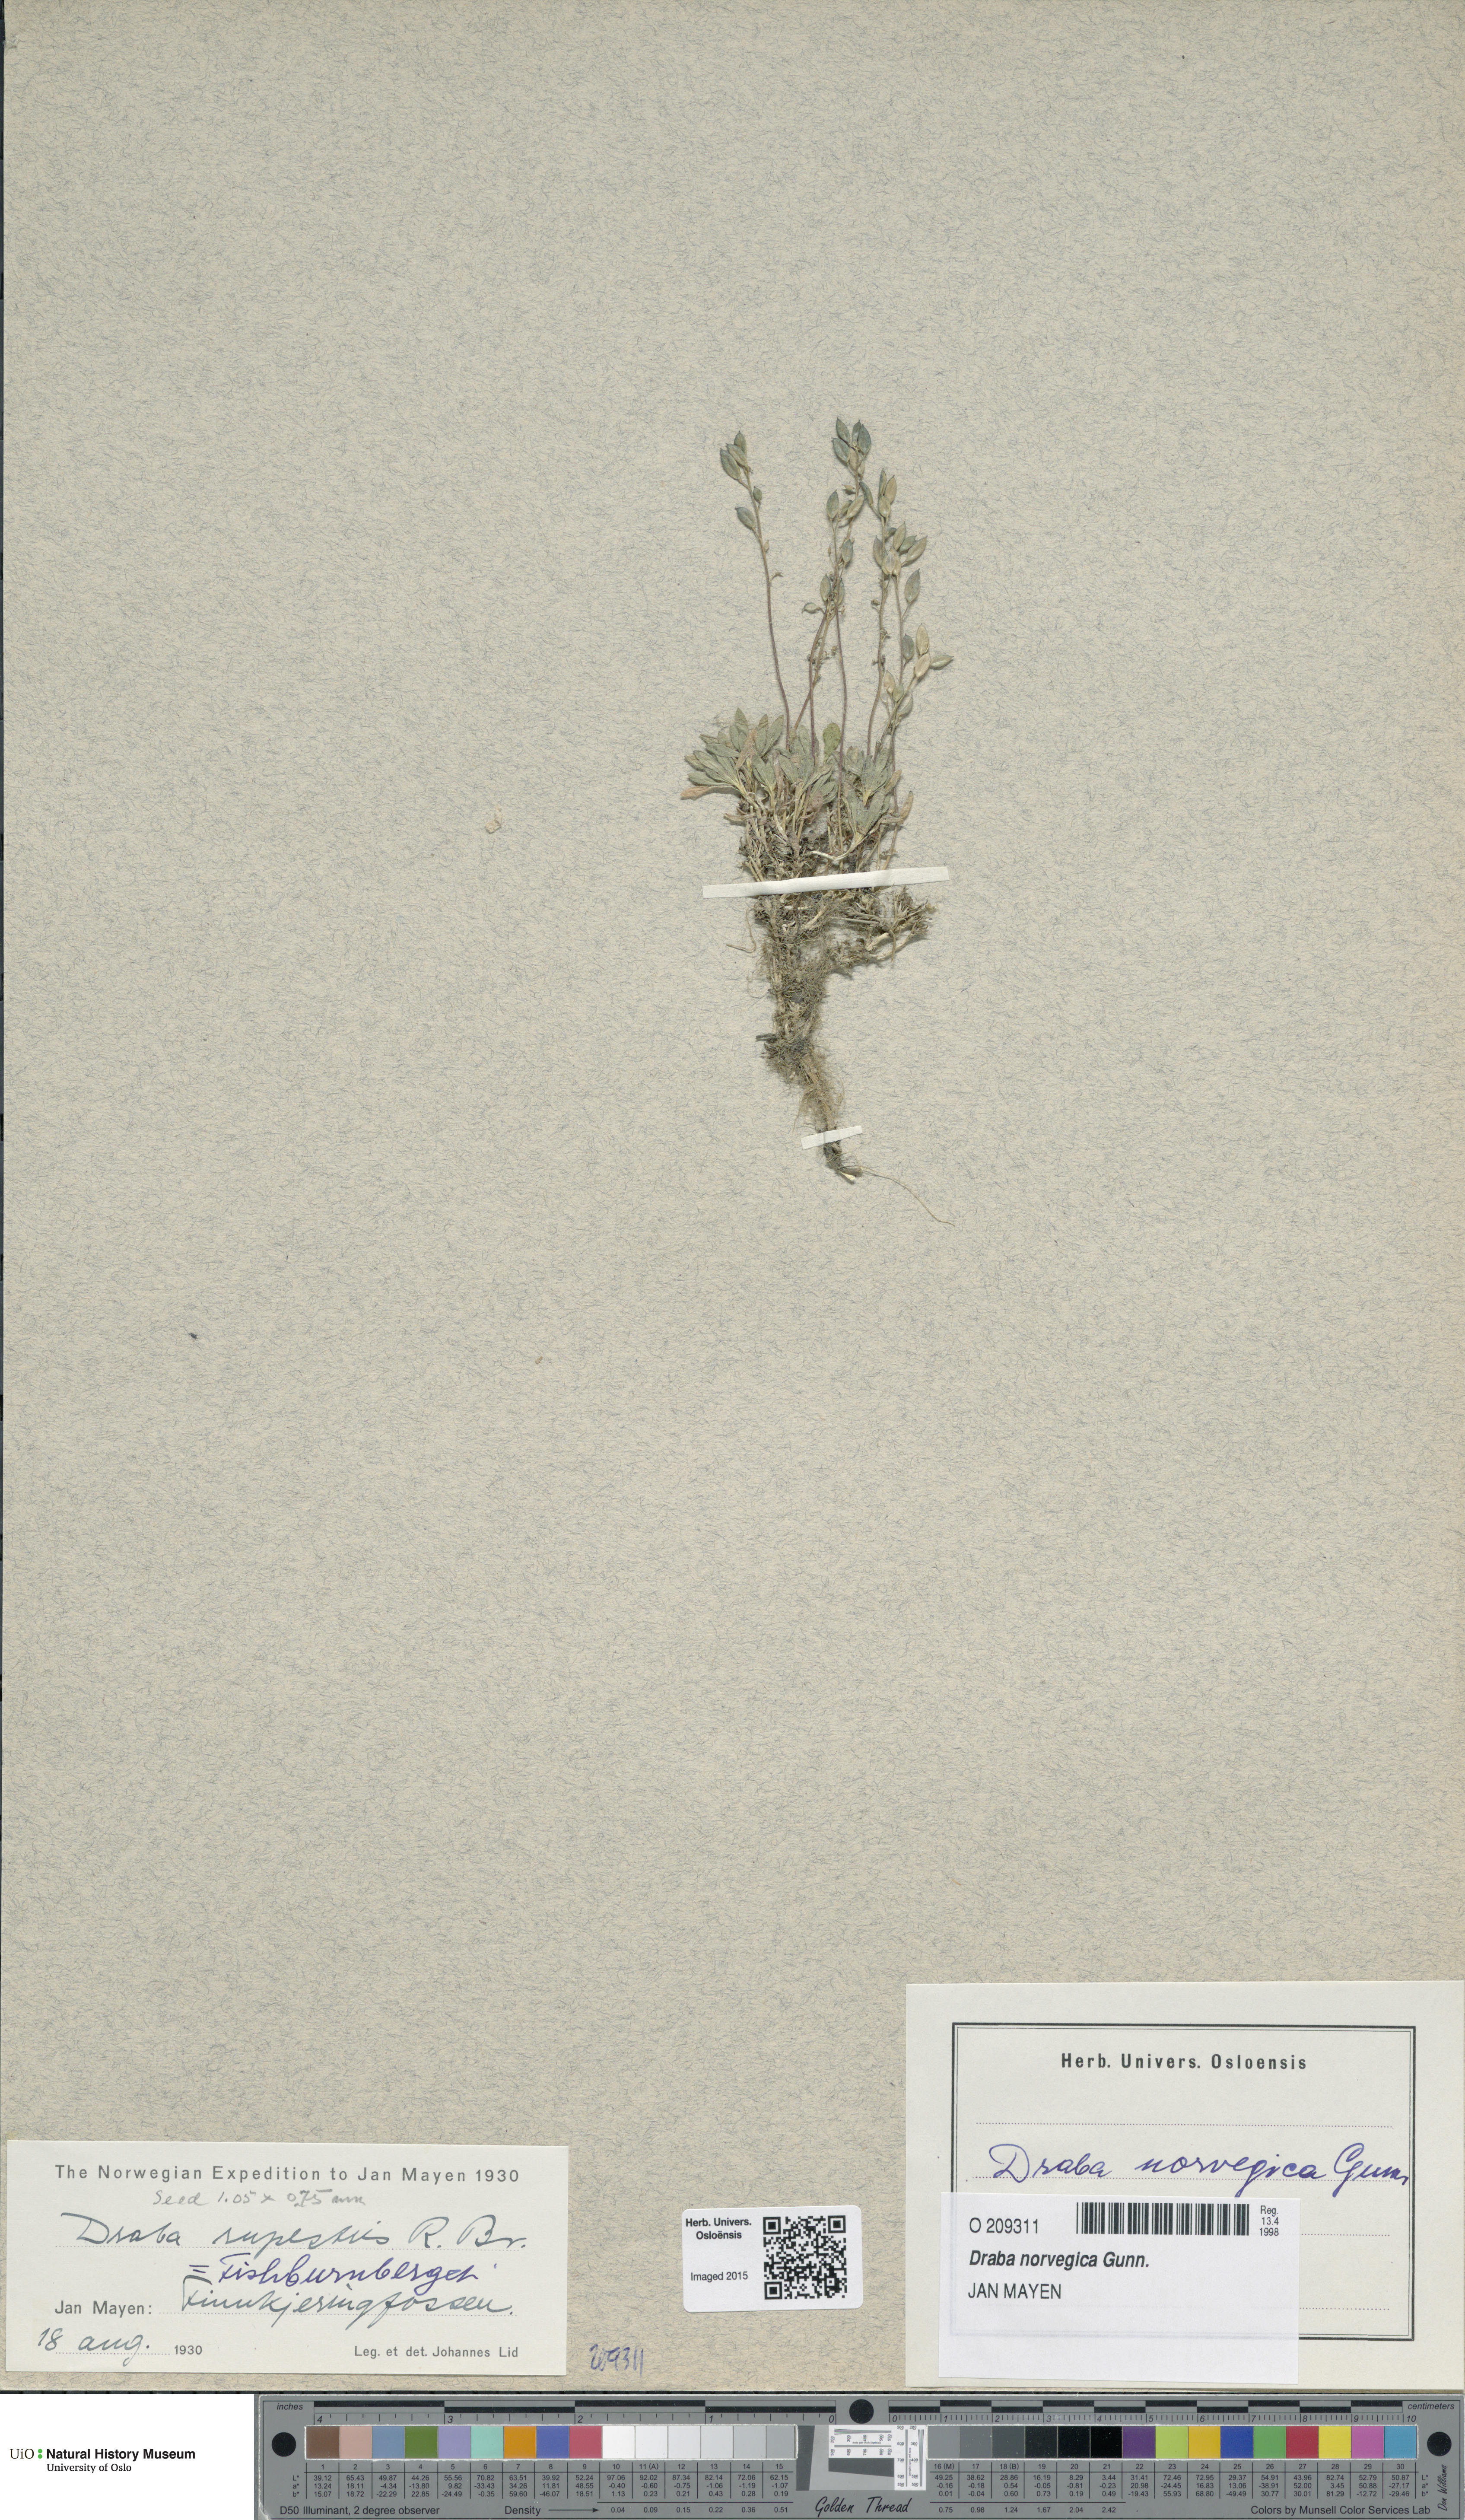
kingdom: Plantae
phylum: Tracheophyta
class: Magnoliopsida
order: Brassicales
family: Brassicaceae
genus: Draba
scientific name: Draba norvegica
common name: Rock whitlowgrass
